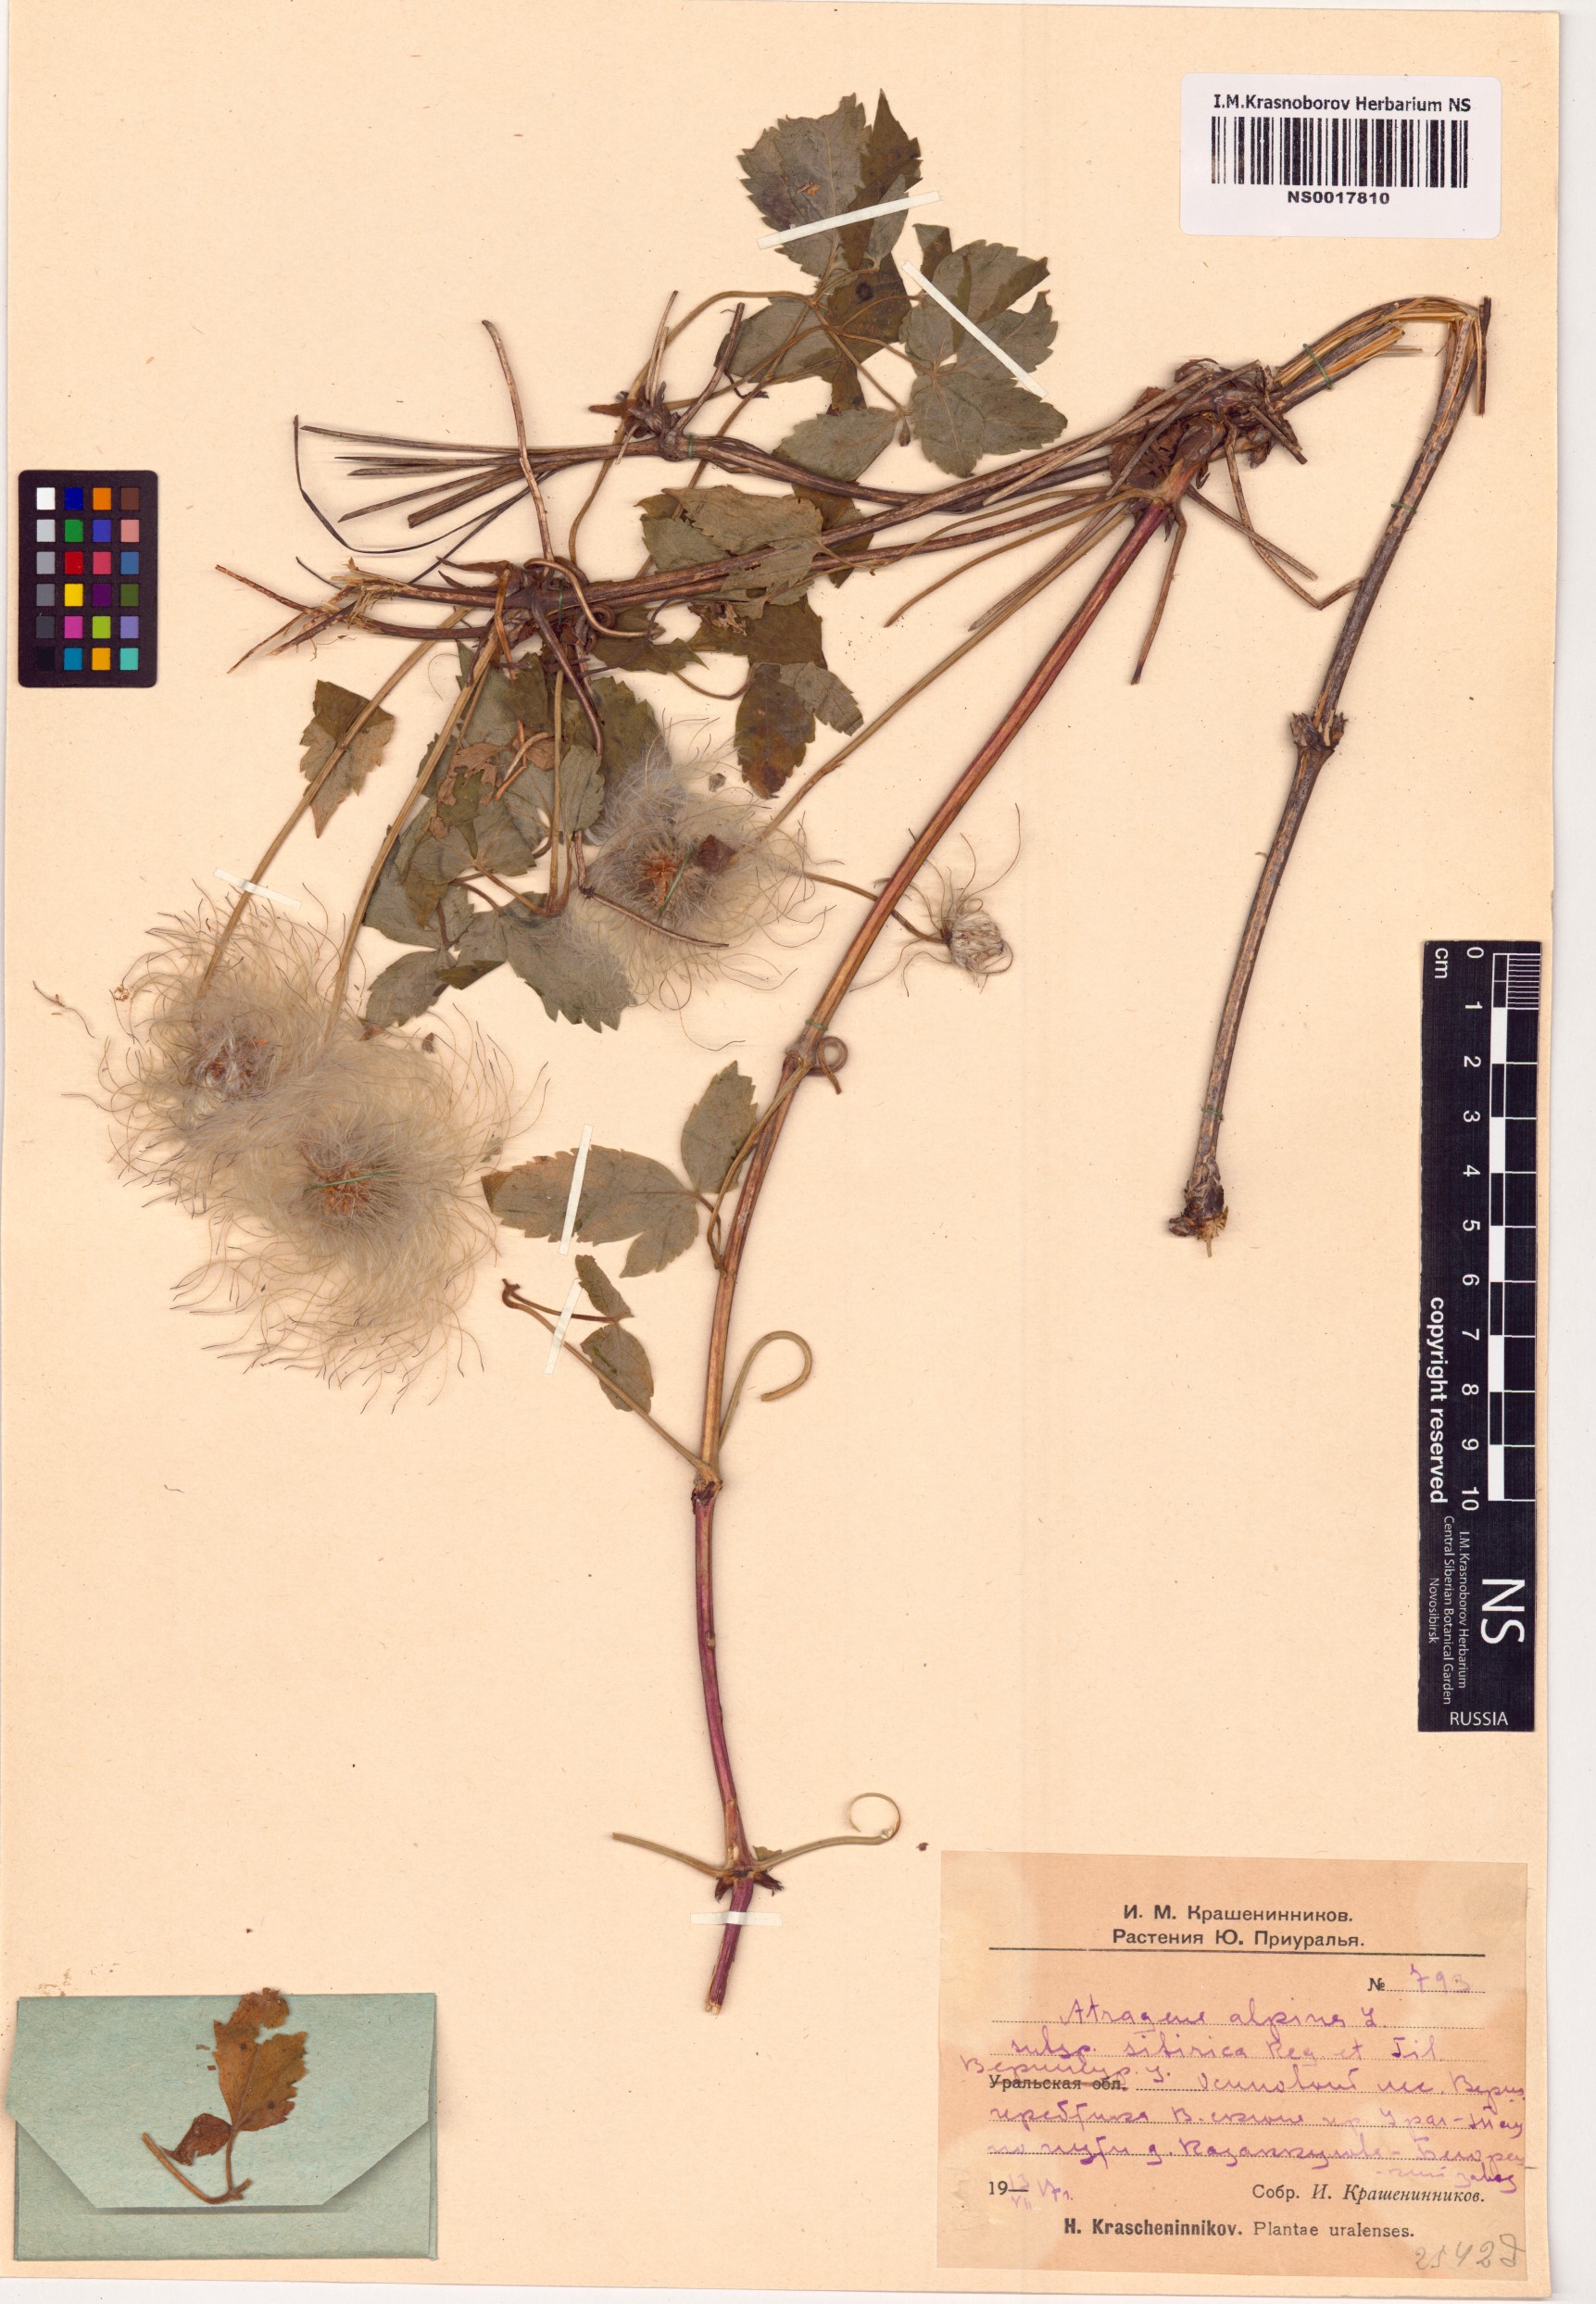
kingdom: Plantae
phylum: Tracheophyta
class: Magnoliopsida
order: Ranunculales
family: Ranunculaceae
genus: Clematis
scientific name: Clematis sibirica
